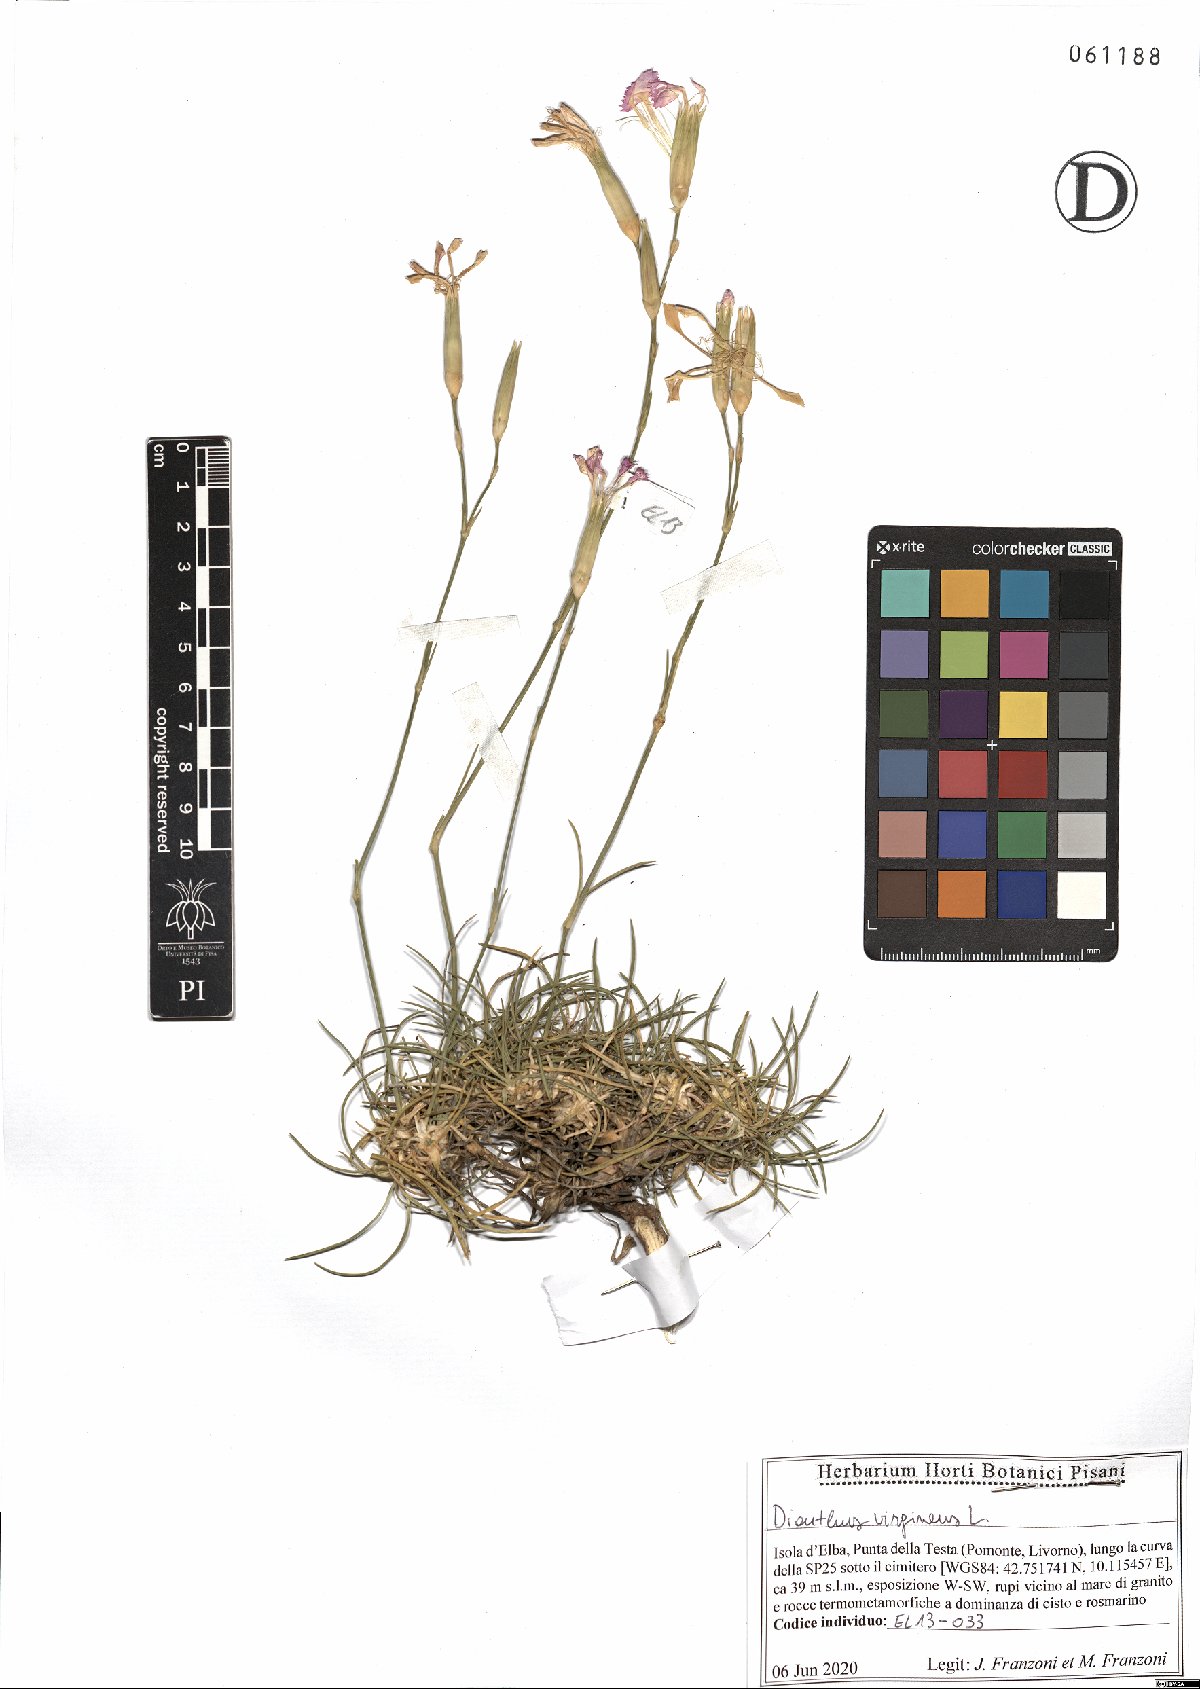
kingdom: Plantae
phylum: Tracheophyta
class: Magnoliopsida
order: Caryophyllales
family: Caryophyllaceae
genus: Dianthus
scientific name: Dianthus virgineus
